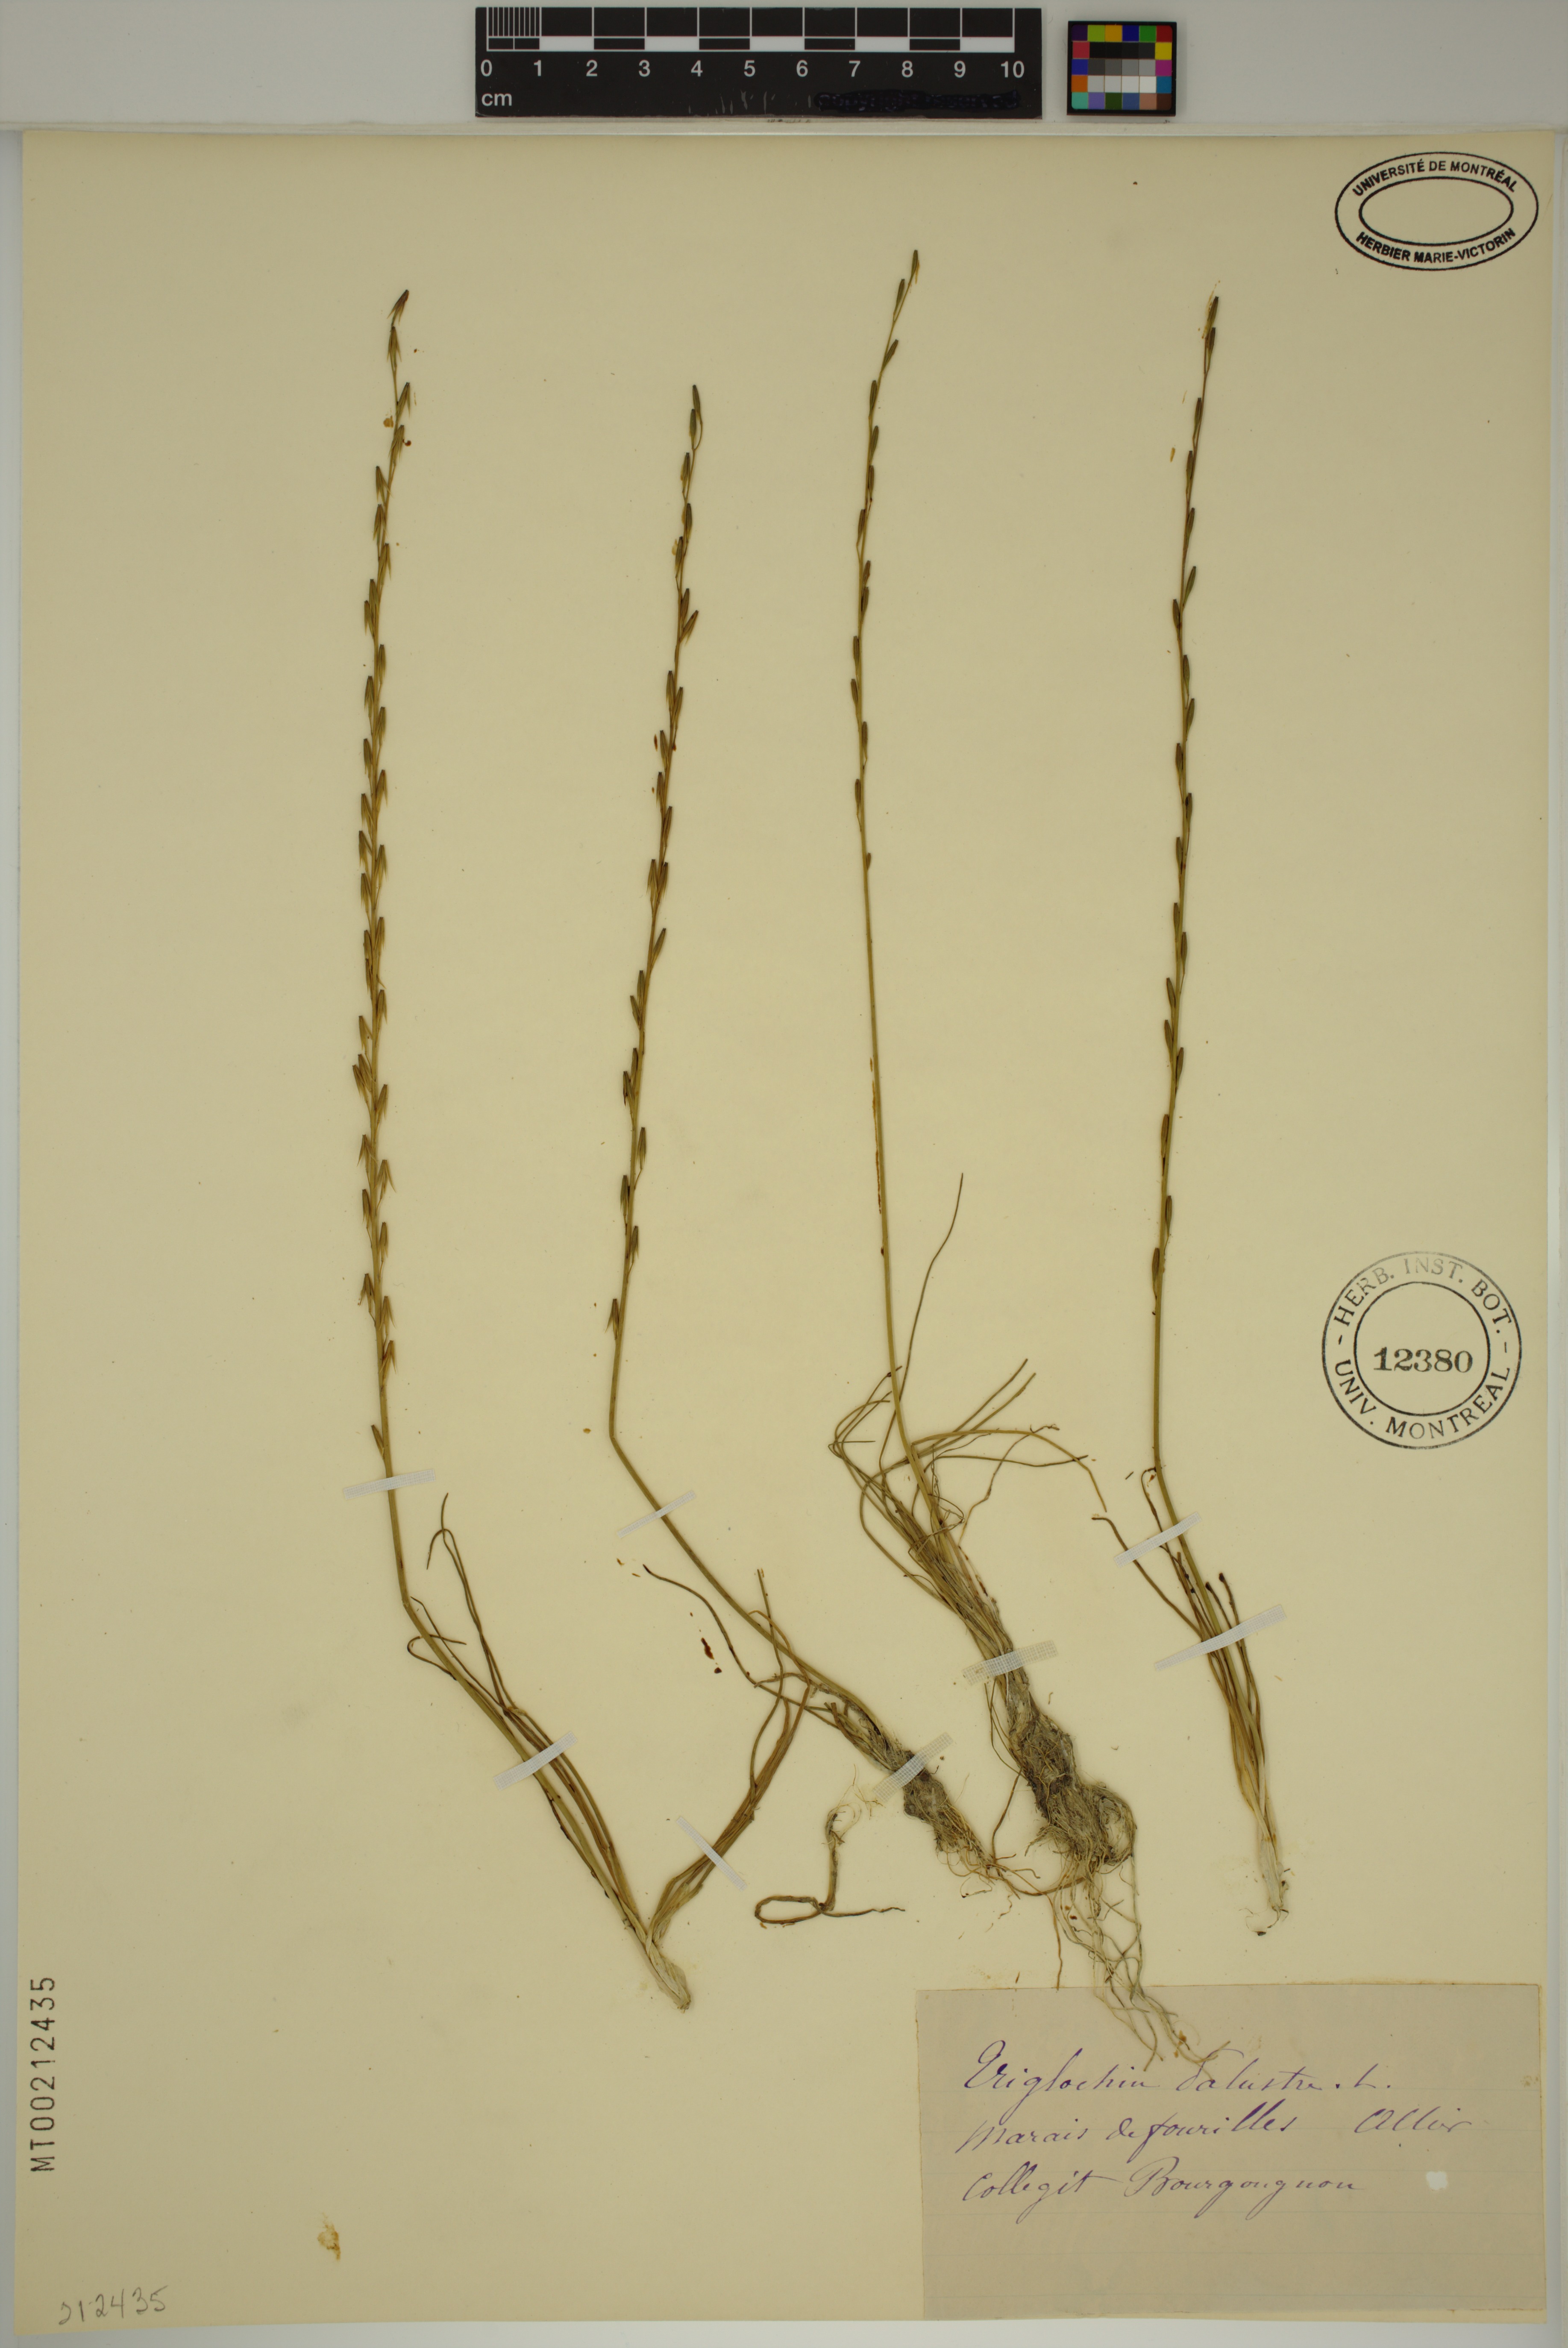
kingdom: Plantae
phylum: Tracheophyta
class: Liliopsida
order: Alismatales
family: Juncaginaceae
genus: Triglochin
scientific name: Triglochin palustris
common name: Marsh arrowgrass
